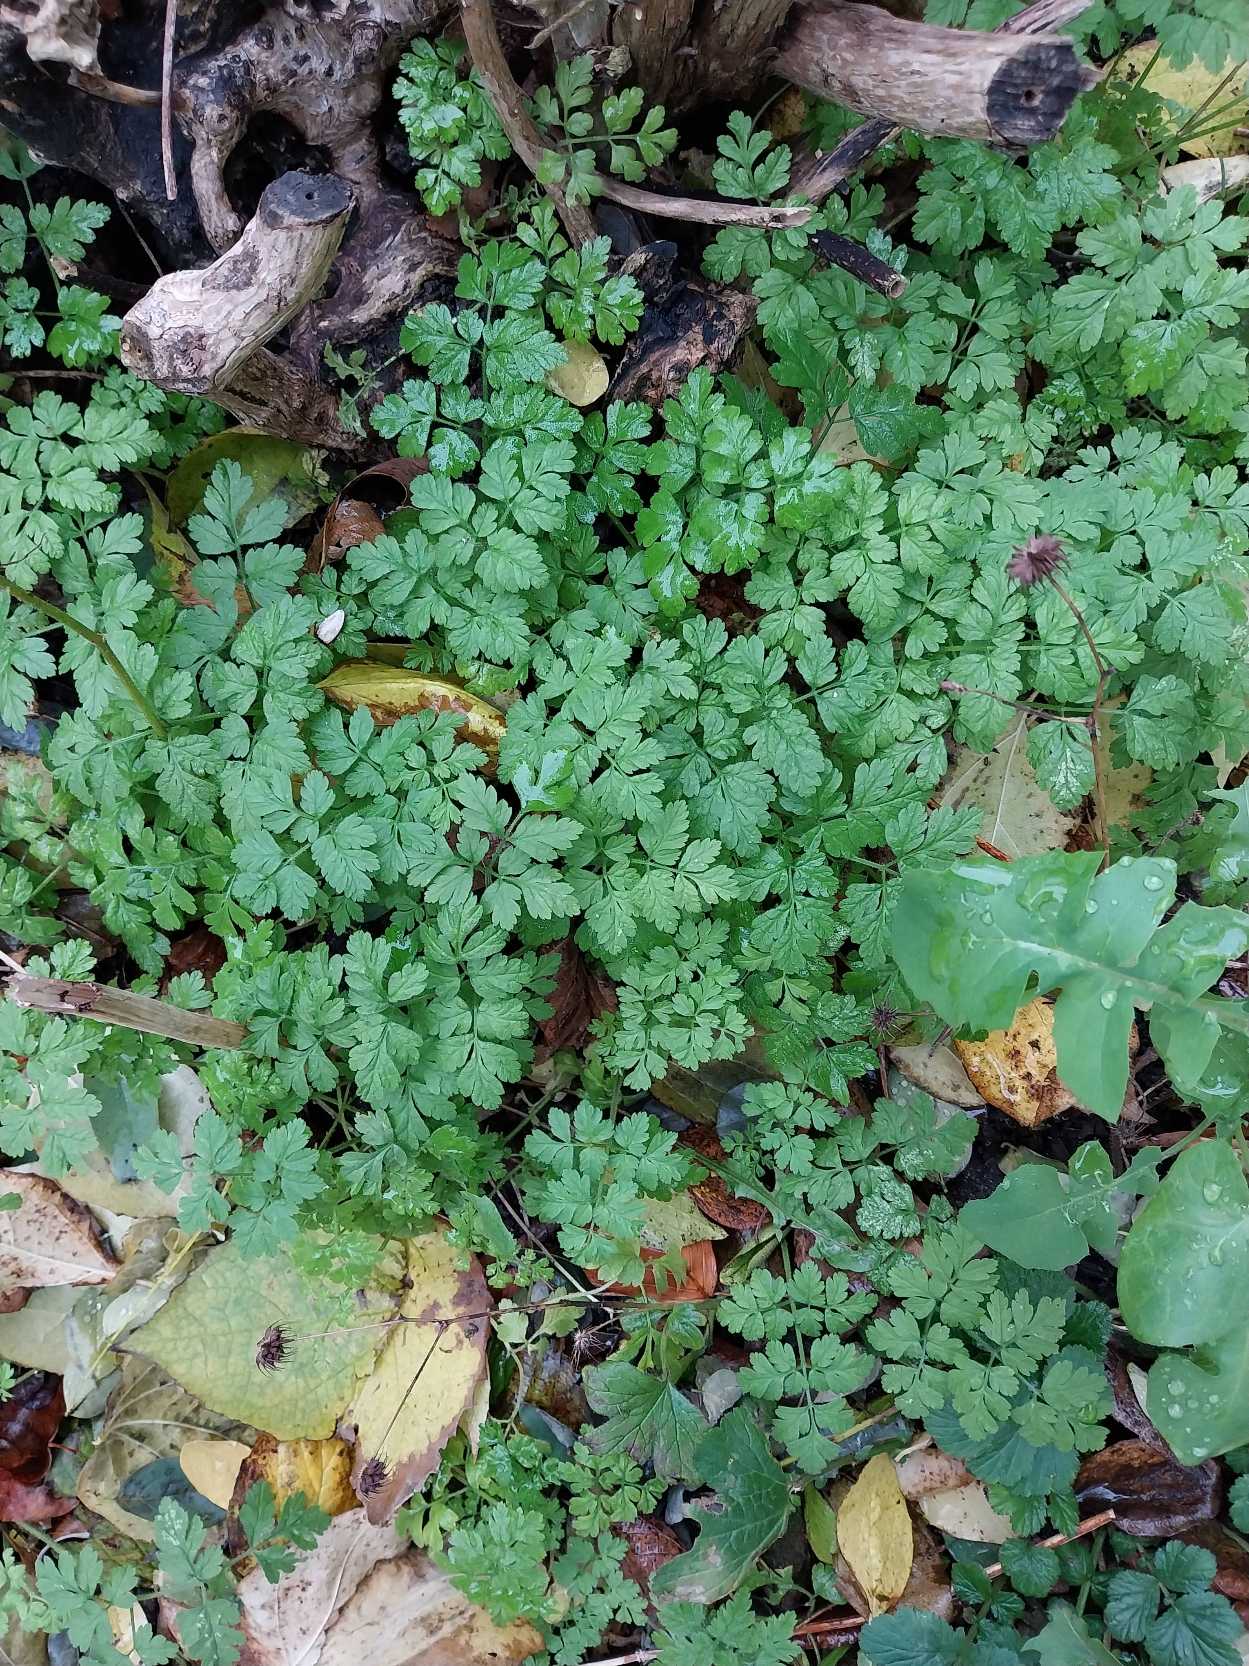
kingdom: Plantae
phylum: Tracheophyta
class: Magnoliopsida
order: Apiales
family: Apiaceae
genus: Chaerophyllum
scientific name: Chaerophyllum temulum
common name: Almindelig hulsvøb
